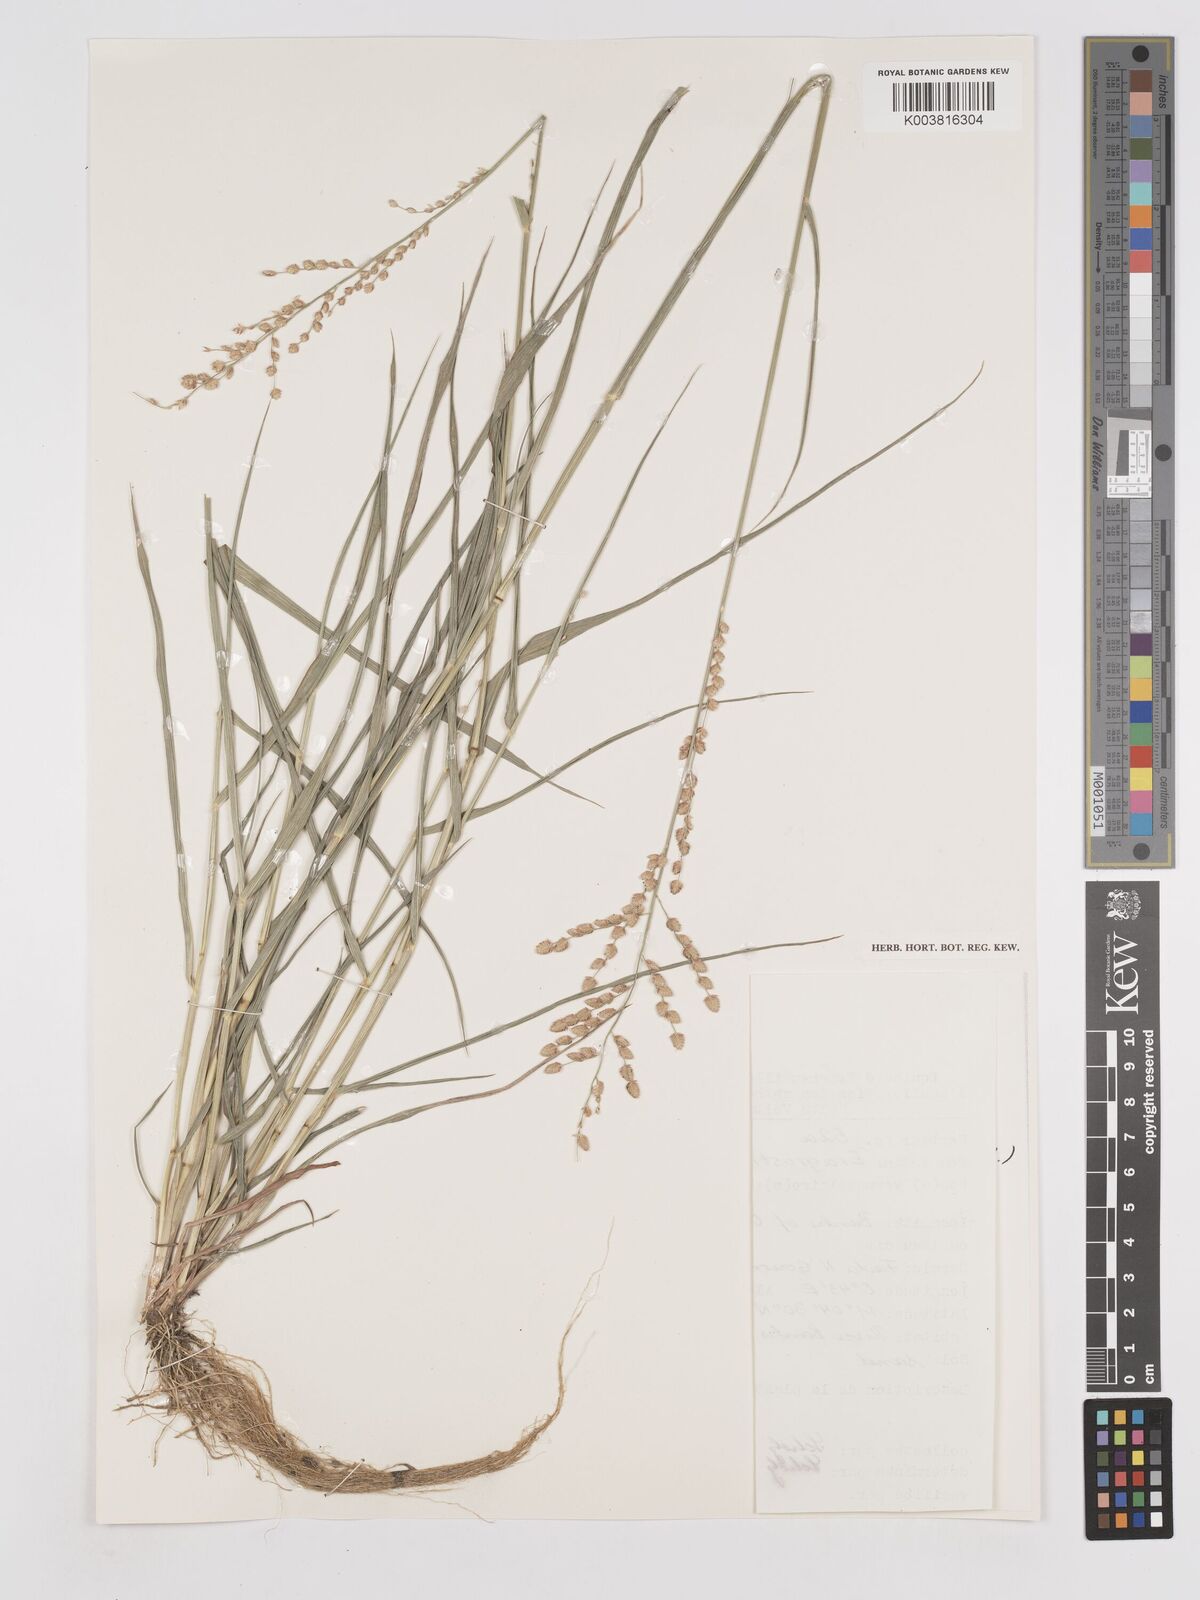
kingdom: Plantae
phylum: Tracheophyta
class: Liliopsida
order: Poales
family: Poaceae
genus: Eragrostis
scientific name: Eragrostis turgida
